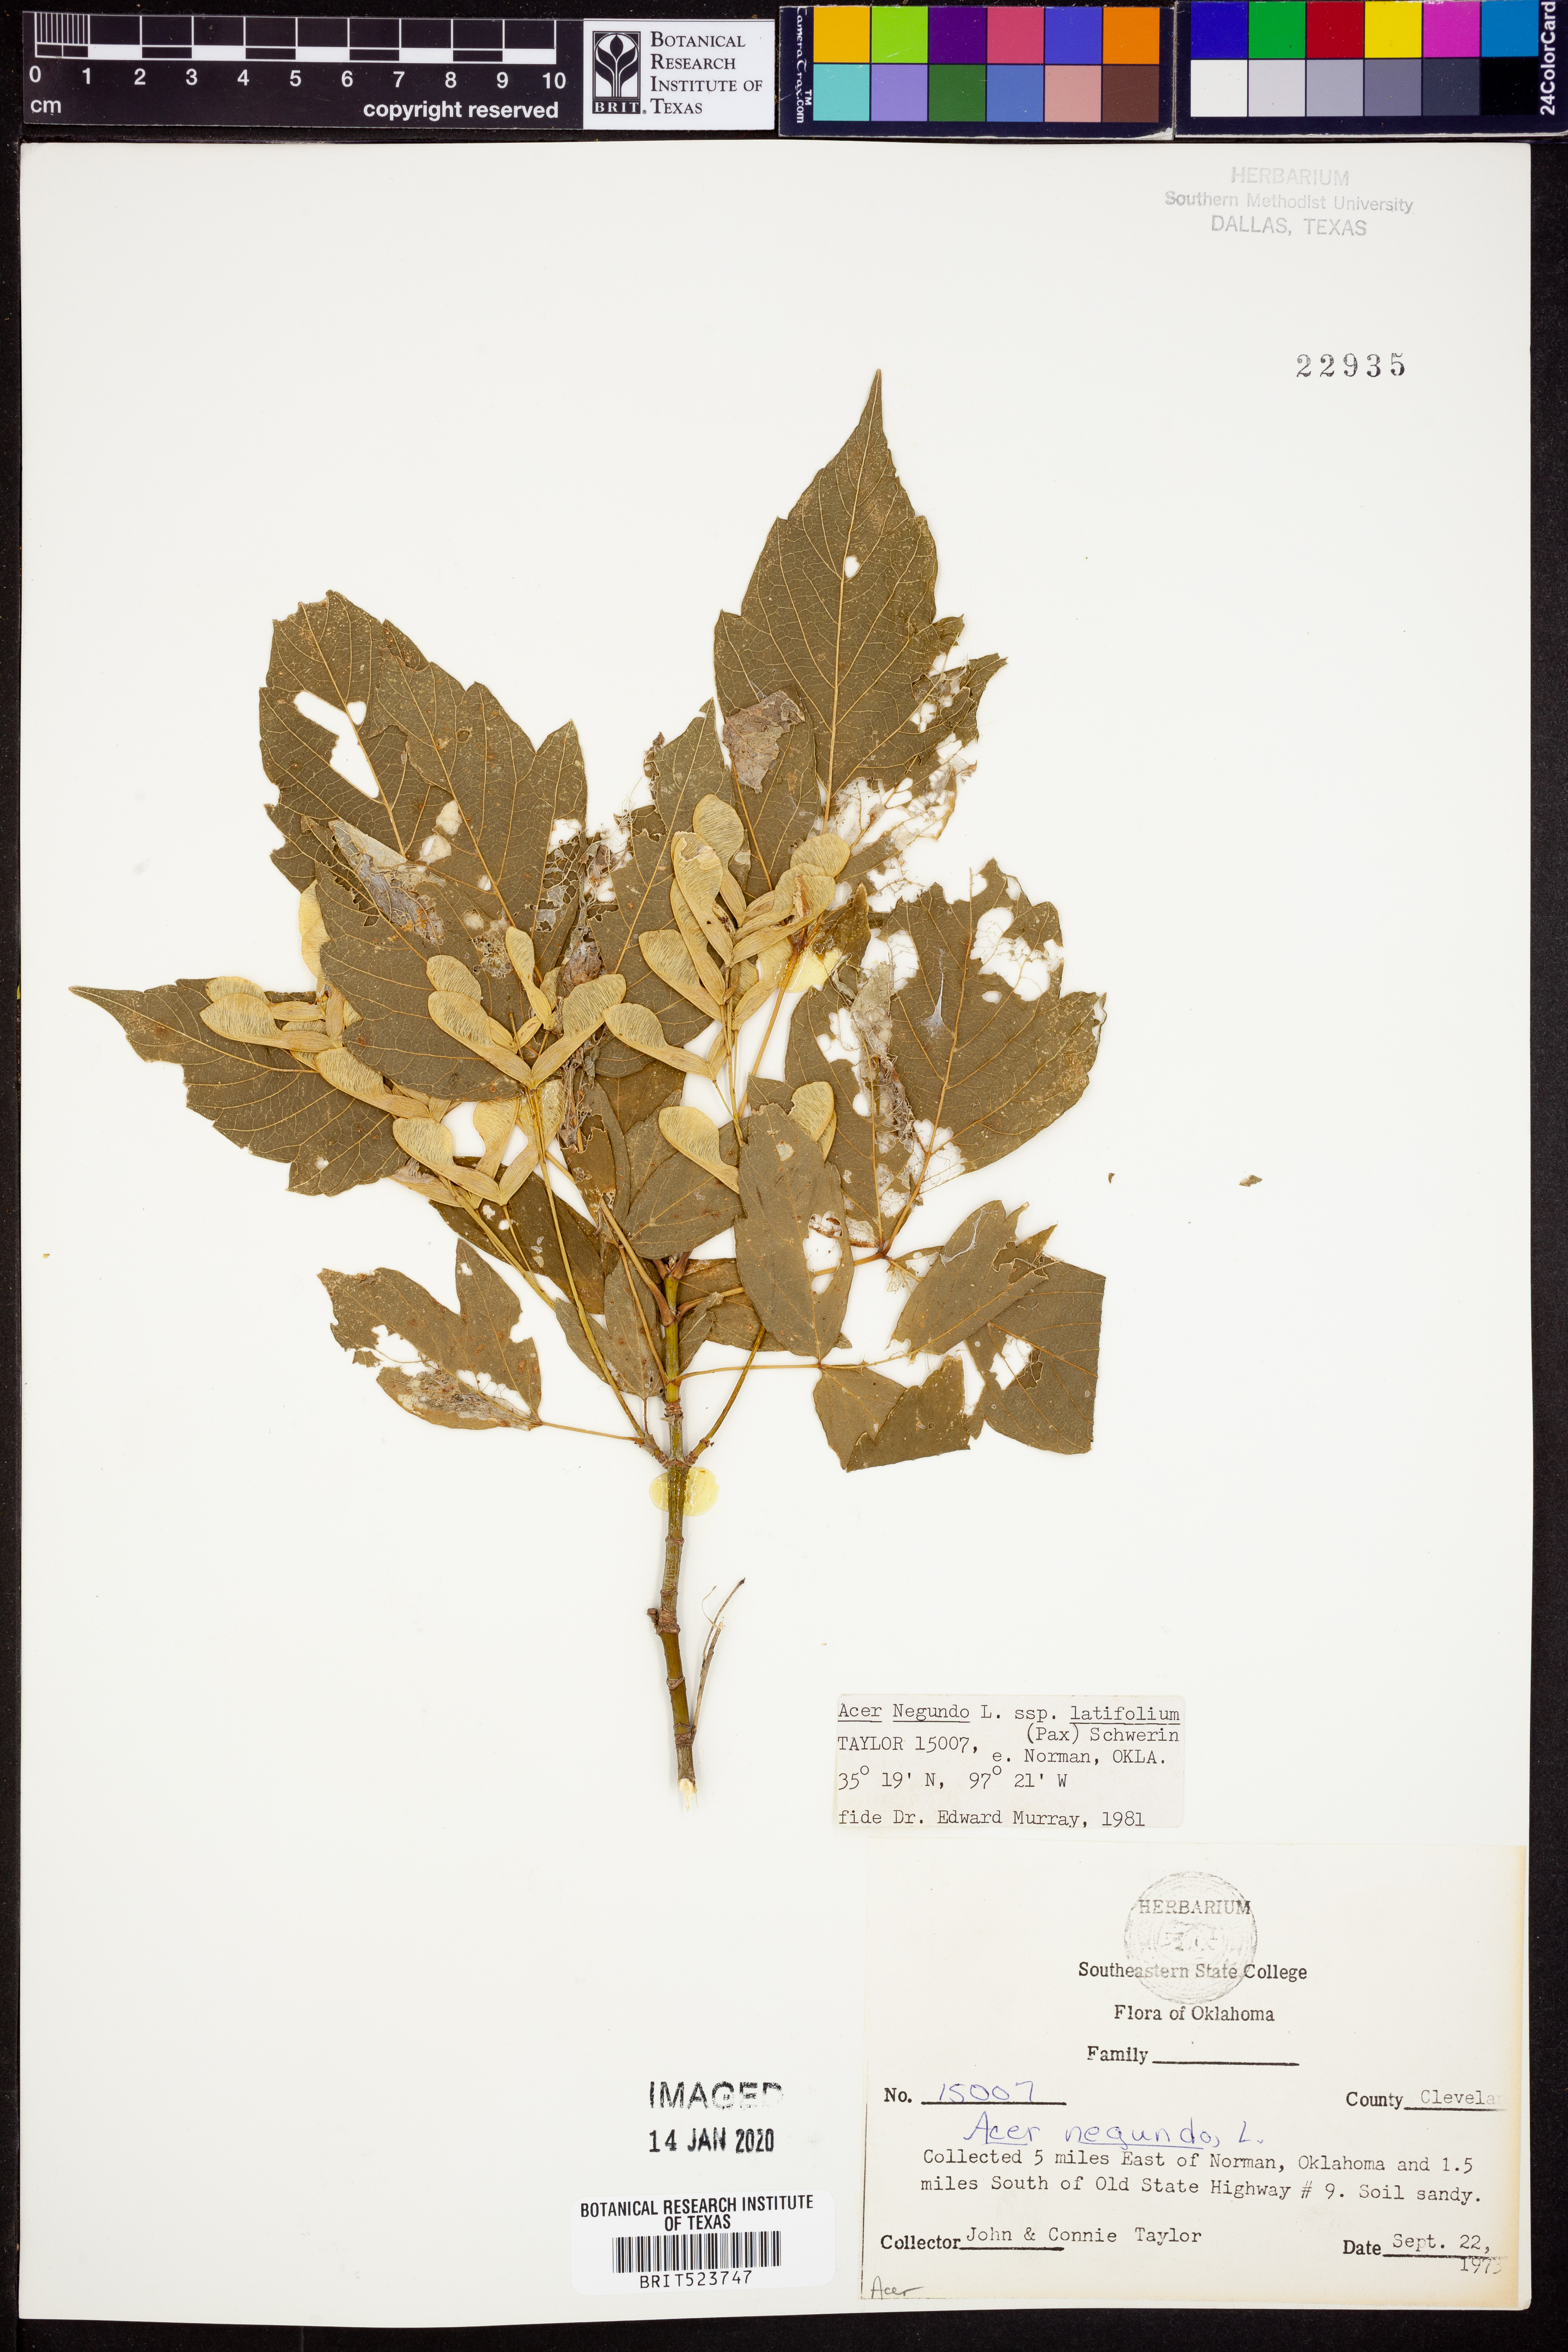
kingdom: Plantae
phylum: Tracheophyta
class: Magnoliopsida
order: Sapindales
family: Sapindaceae
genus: Acer
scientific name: Acer negundo
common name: Ashleaf maple
